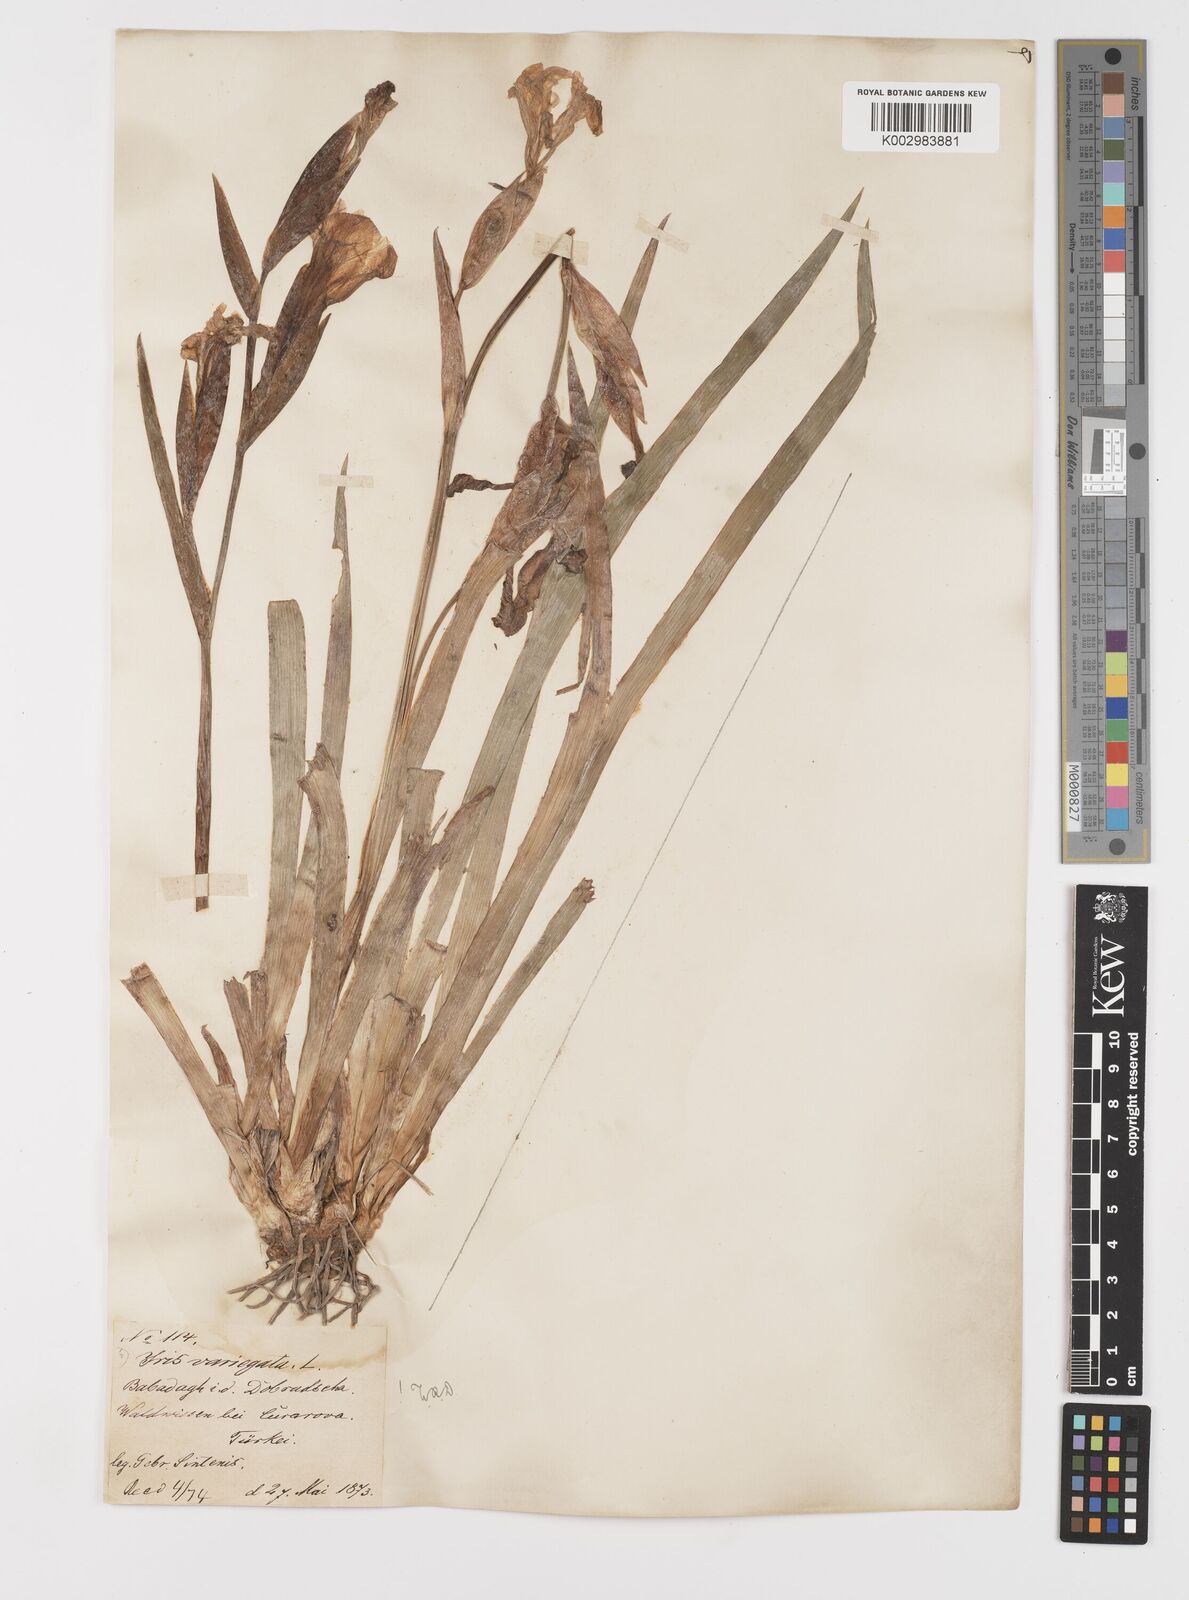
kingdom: Plantae
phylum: Tracheophyta
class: Liliopsida
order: Asparagales
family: Iridaceae
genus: Iris
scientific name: Iris variegata
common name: Hungarian iris
